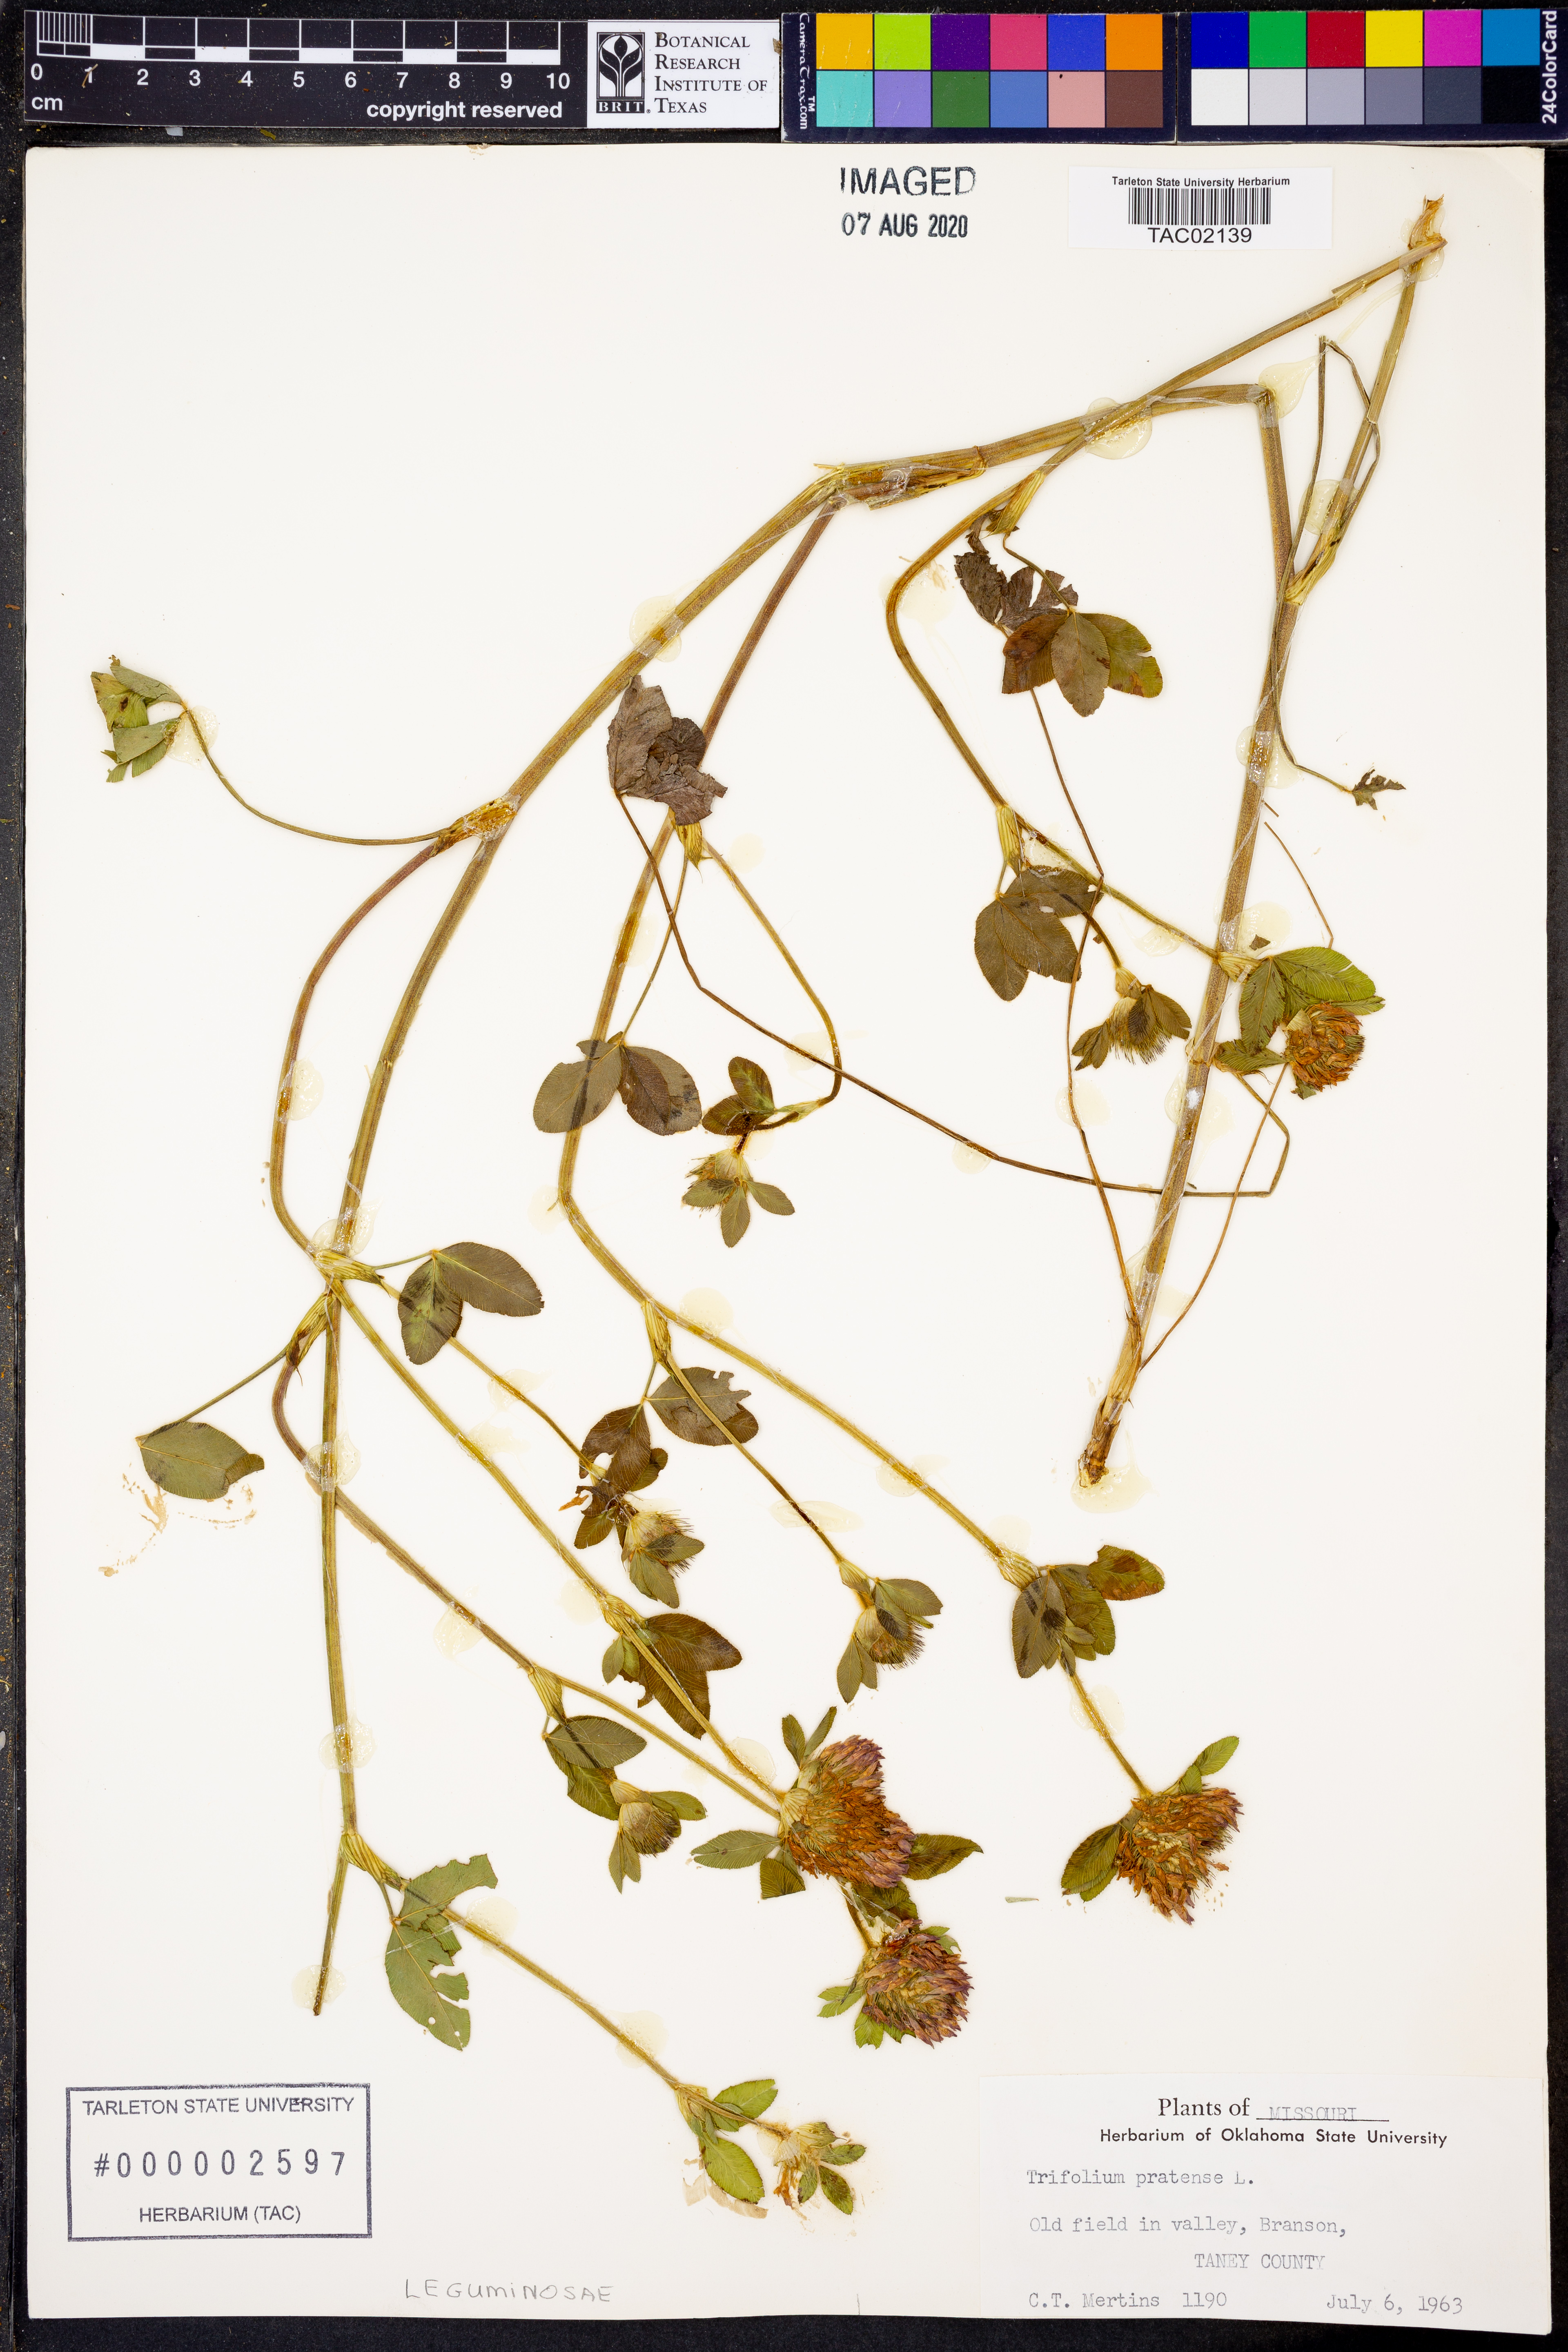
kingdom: Plantae
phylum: Tracheophyta
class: Magnoliopsida
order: Fabales
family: Fabaceae
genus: Trifolium
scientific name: Trifolium pratense
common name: Red clover
